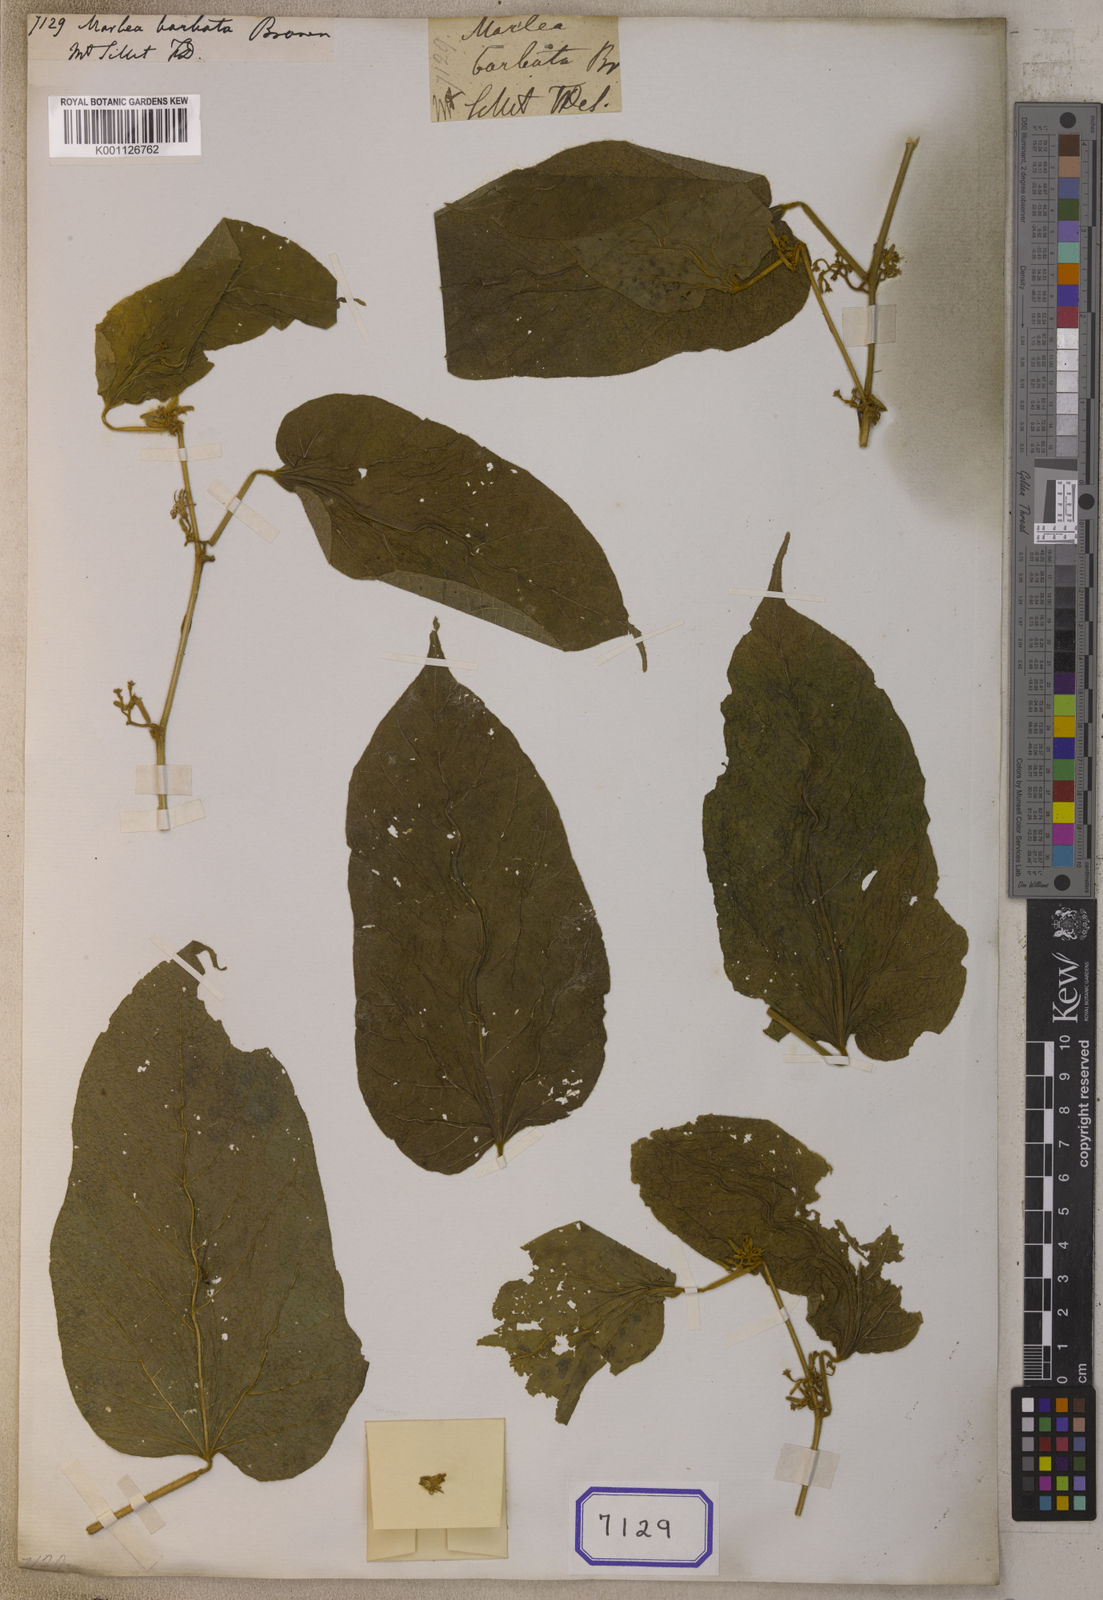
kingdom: Plantae
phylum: Tracheophyta
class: Magnoliopsida
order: Cornales
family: Cornaceae
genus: Alangium
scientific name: Alangium
